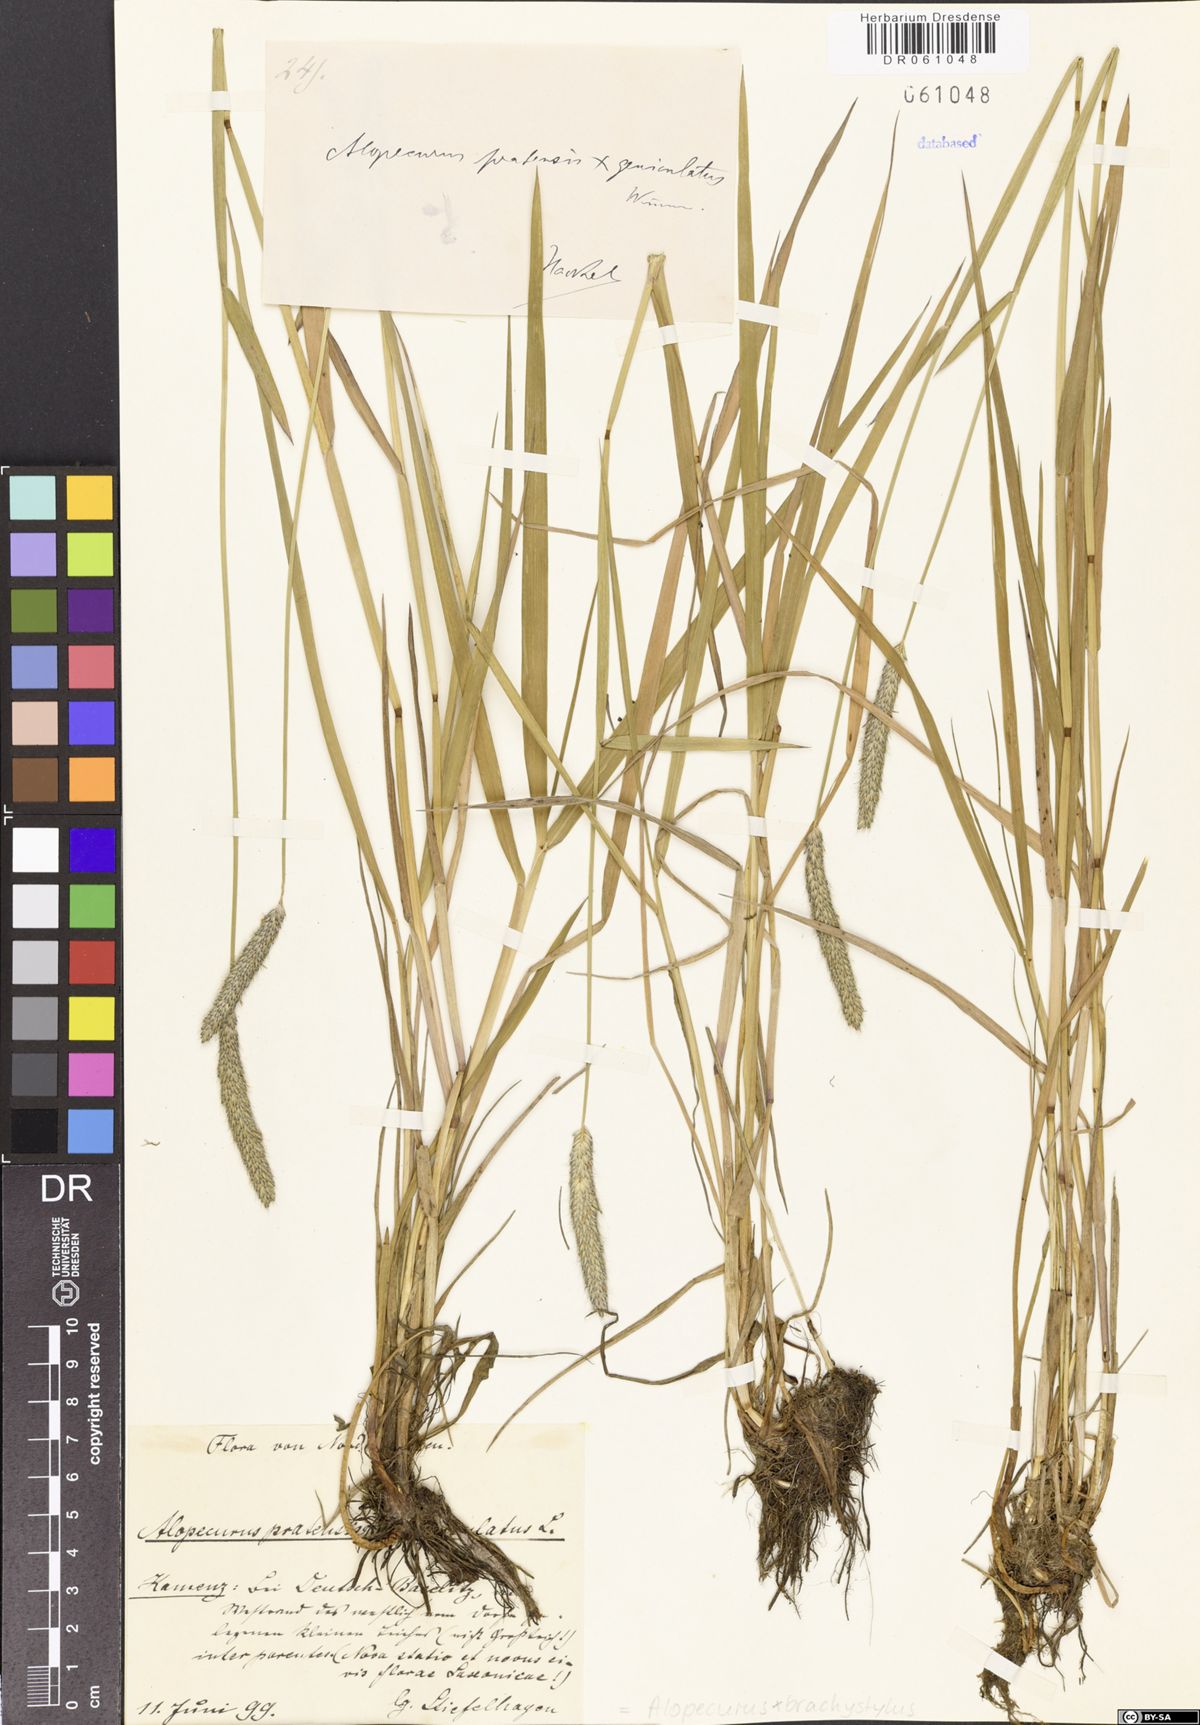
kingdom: Plantae
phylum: Tracheophyta
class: Liliopsida
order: Poales
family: Poaceae
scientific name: Poaceae
